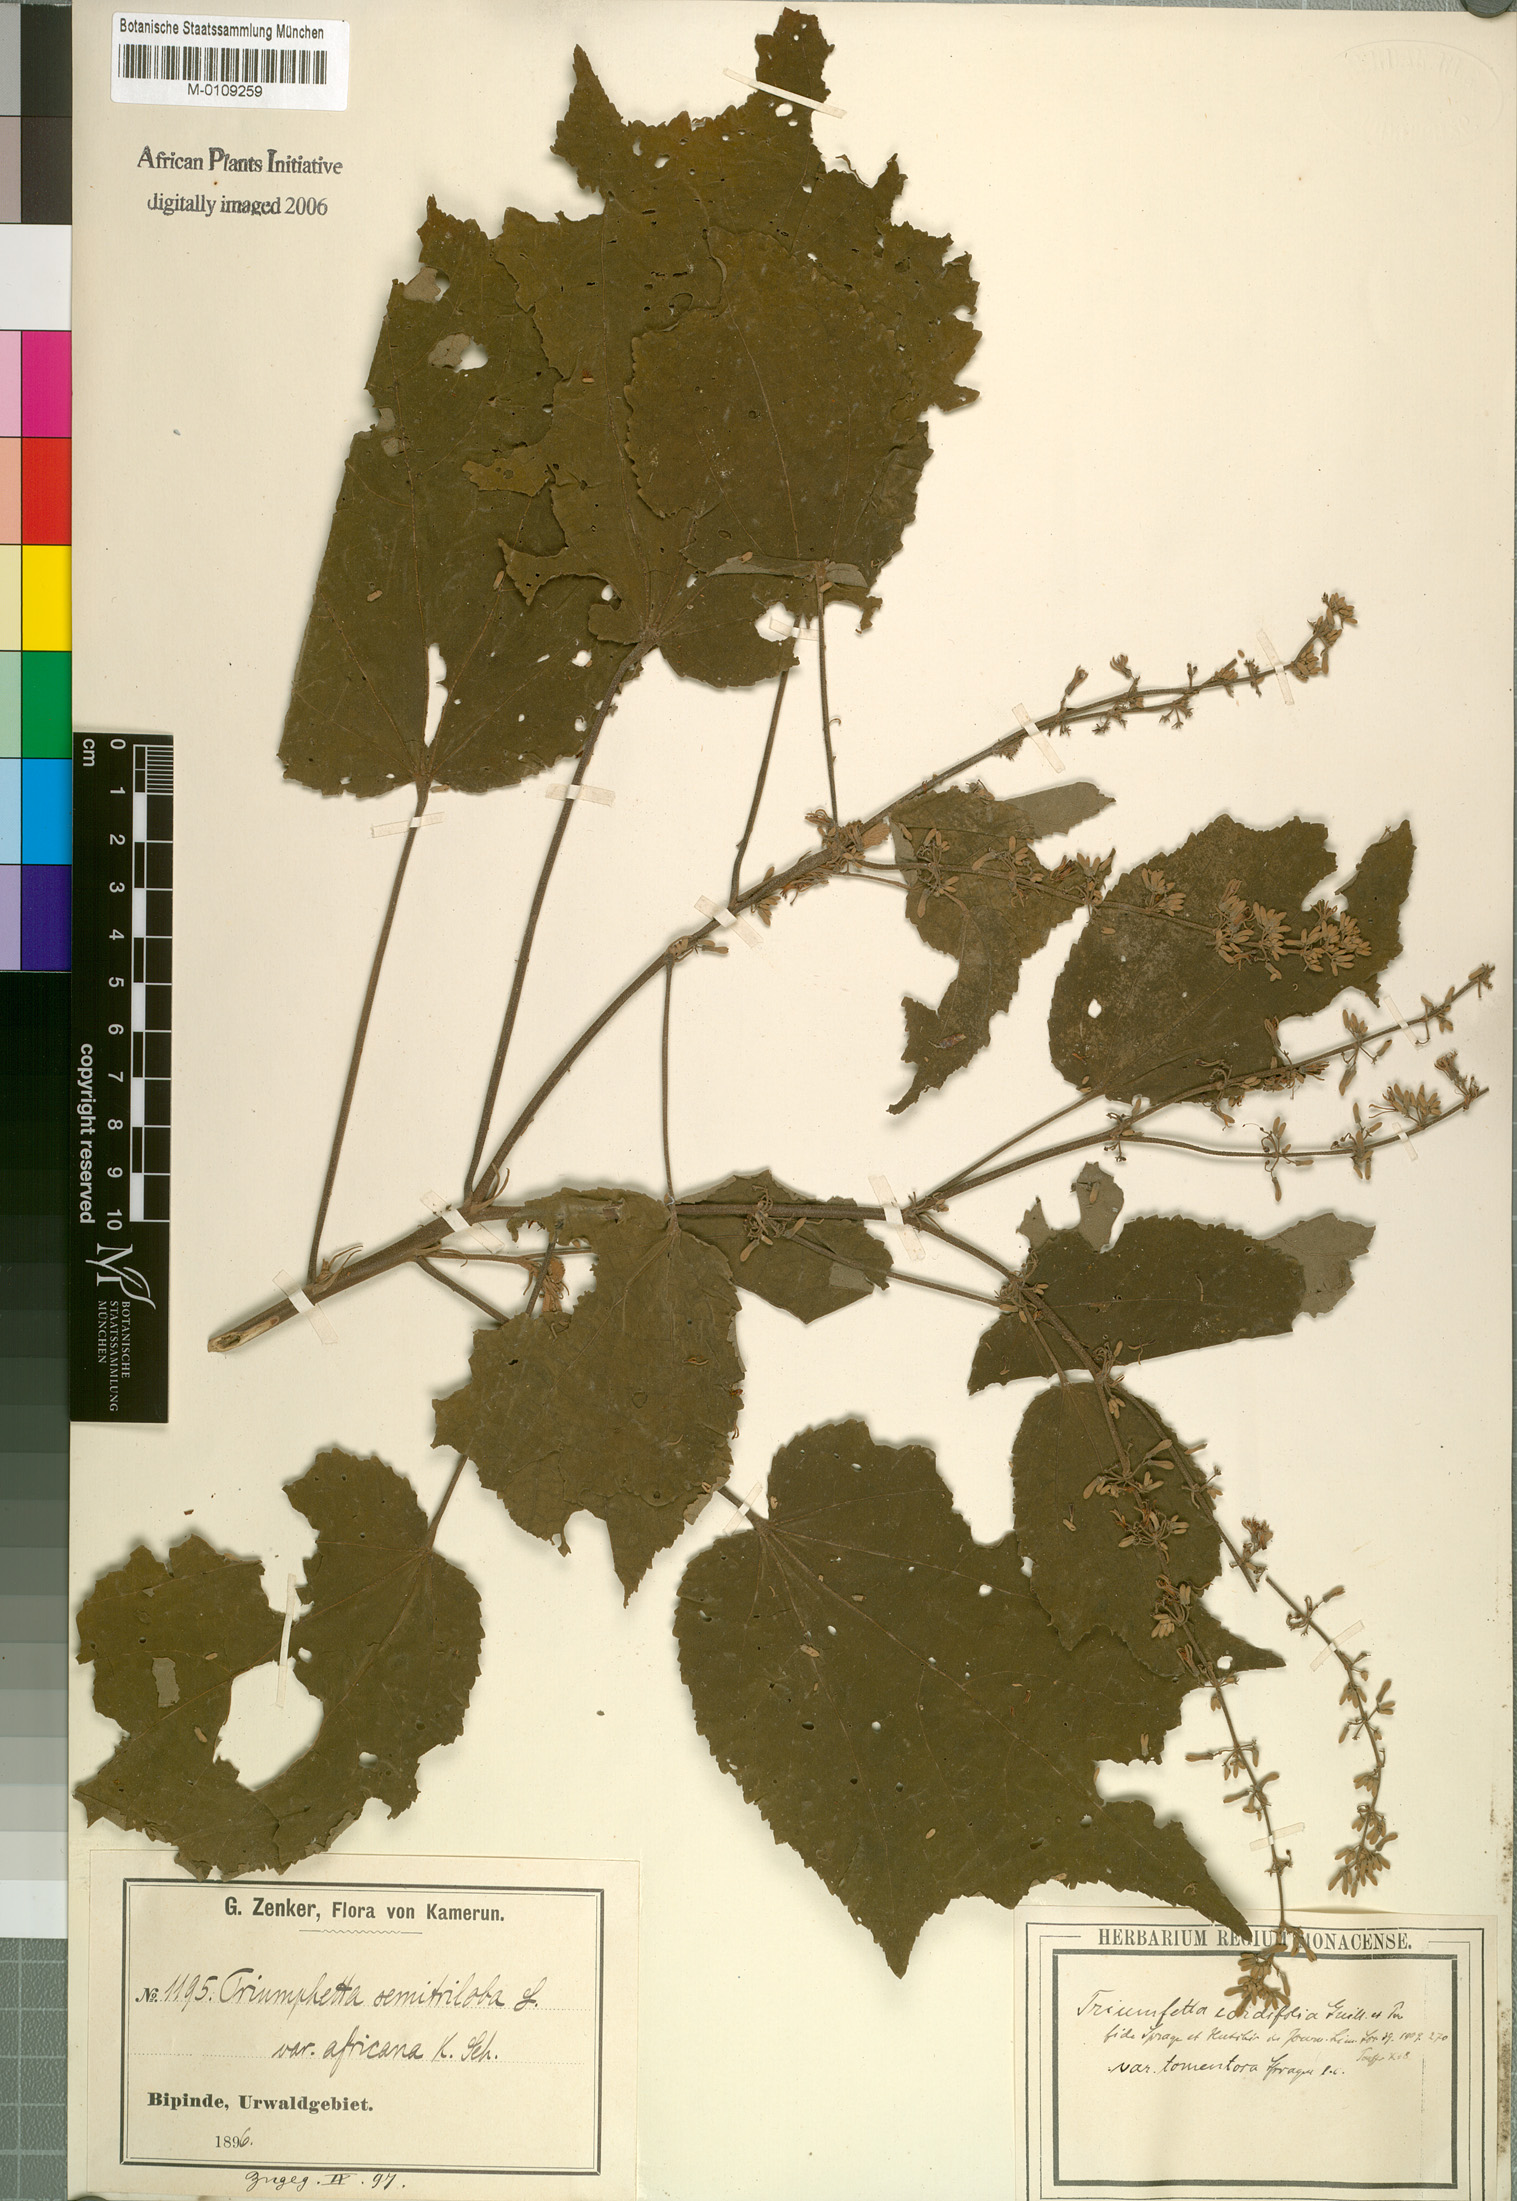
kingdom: Plantae
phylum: Tracheophyta
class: Magnoliopsida
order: Malvales
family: Malvaceae
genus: Triumfetta
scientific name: Triumfetta cordifolia
